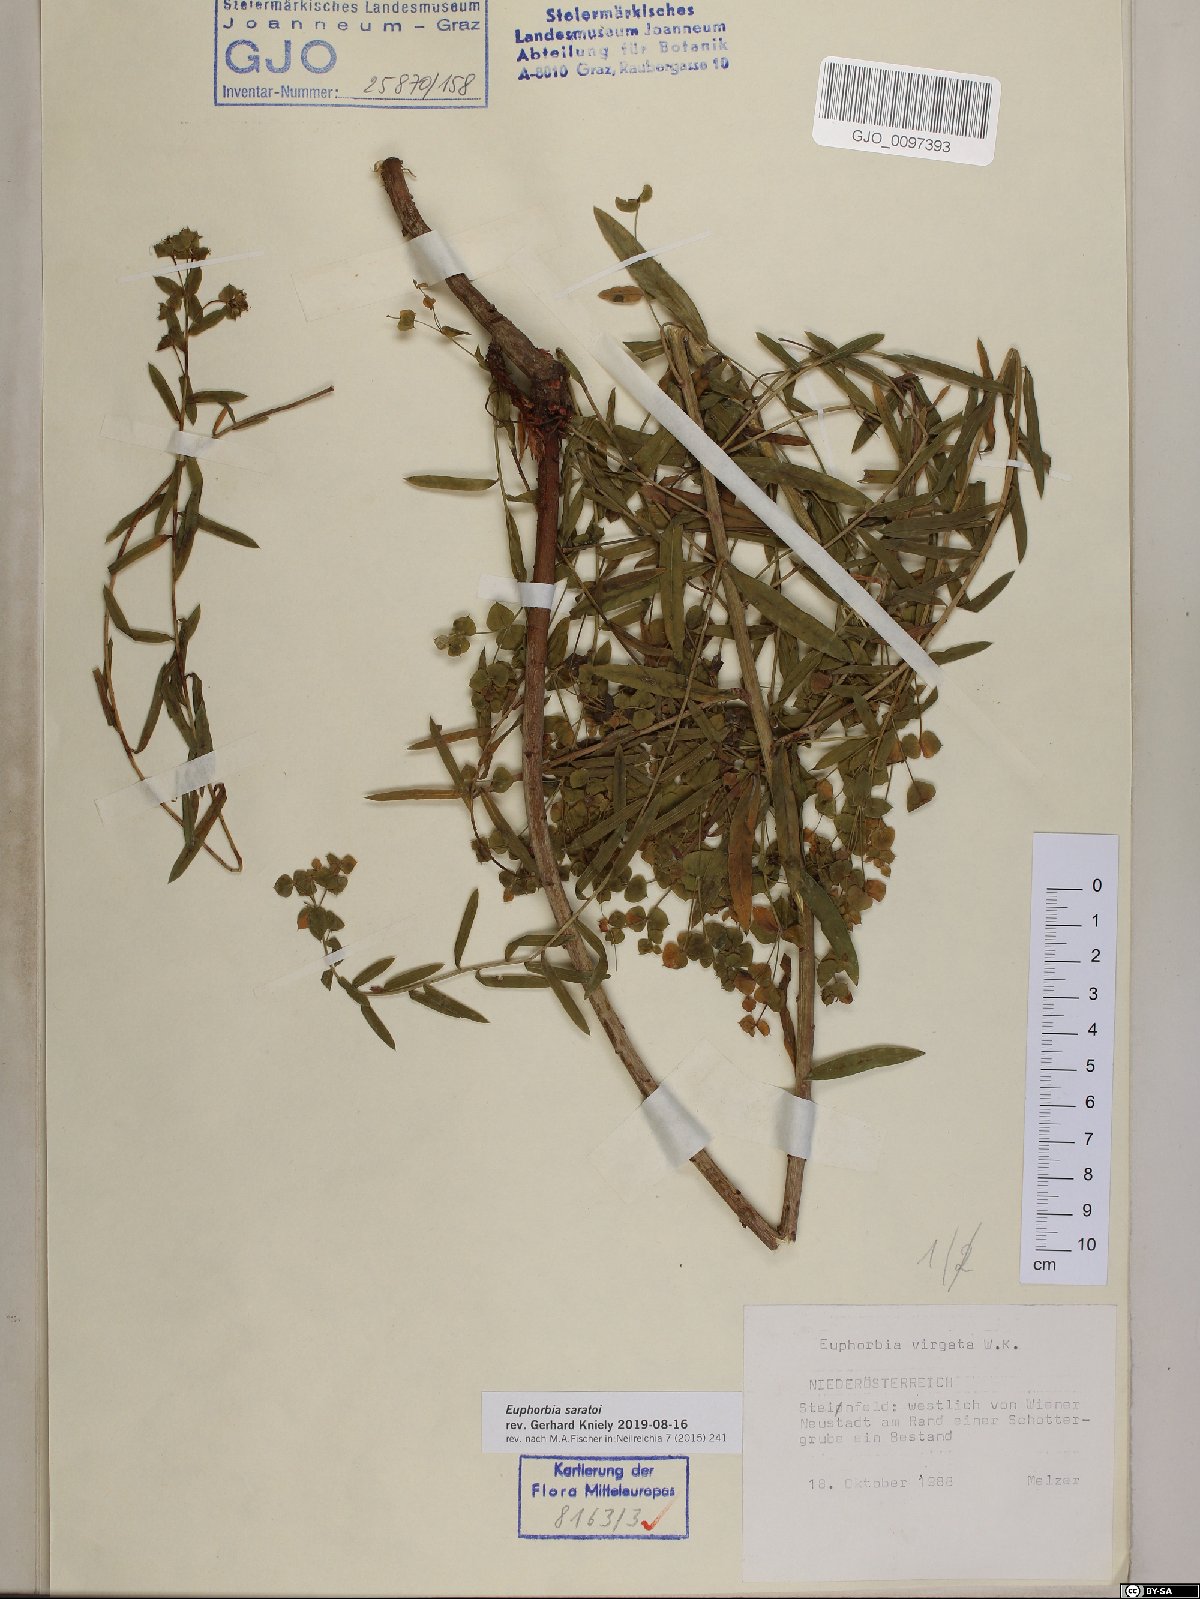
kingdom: Plantae
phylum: Tracheophyta
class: Magnoliopsida
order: Malpighiales
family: Euphorbiaceae
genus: Euphorbia
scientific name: Euphorbia saratoi
